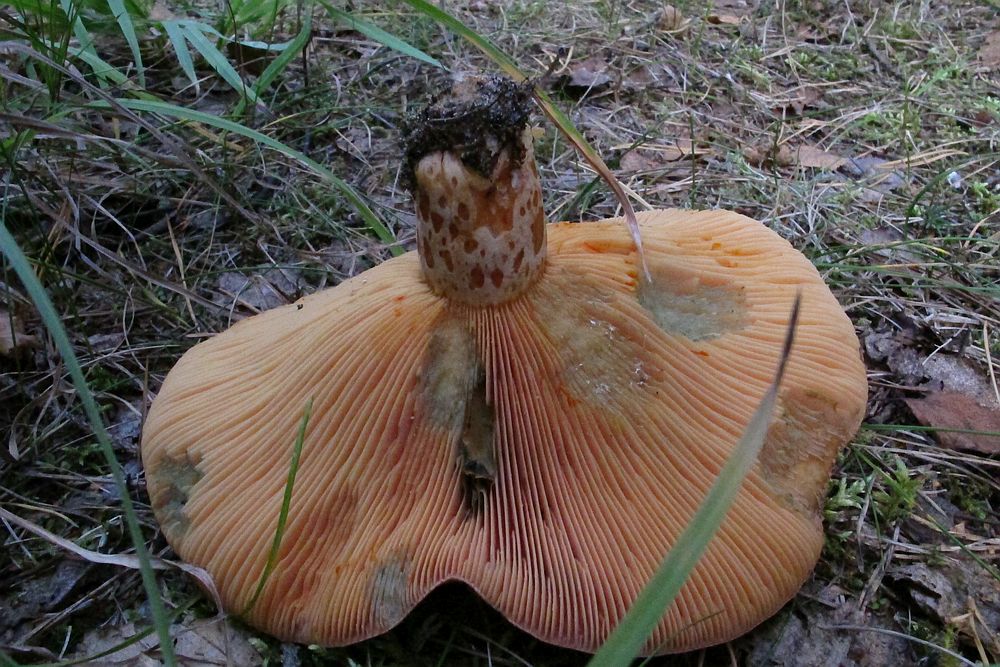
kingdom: Fungi
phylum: Basidiomycota
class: Agaricomycetes
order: Russulales
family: Russulaceae
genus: Lactarius
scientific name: Lactarius deliciosus
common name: velsmagende mælkehat
